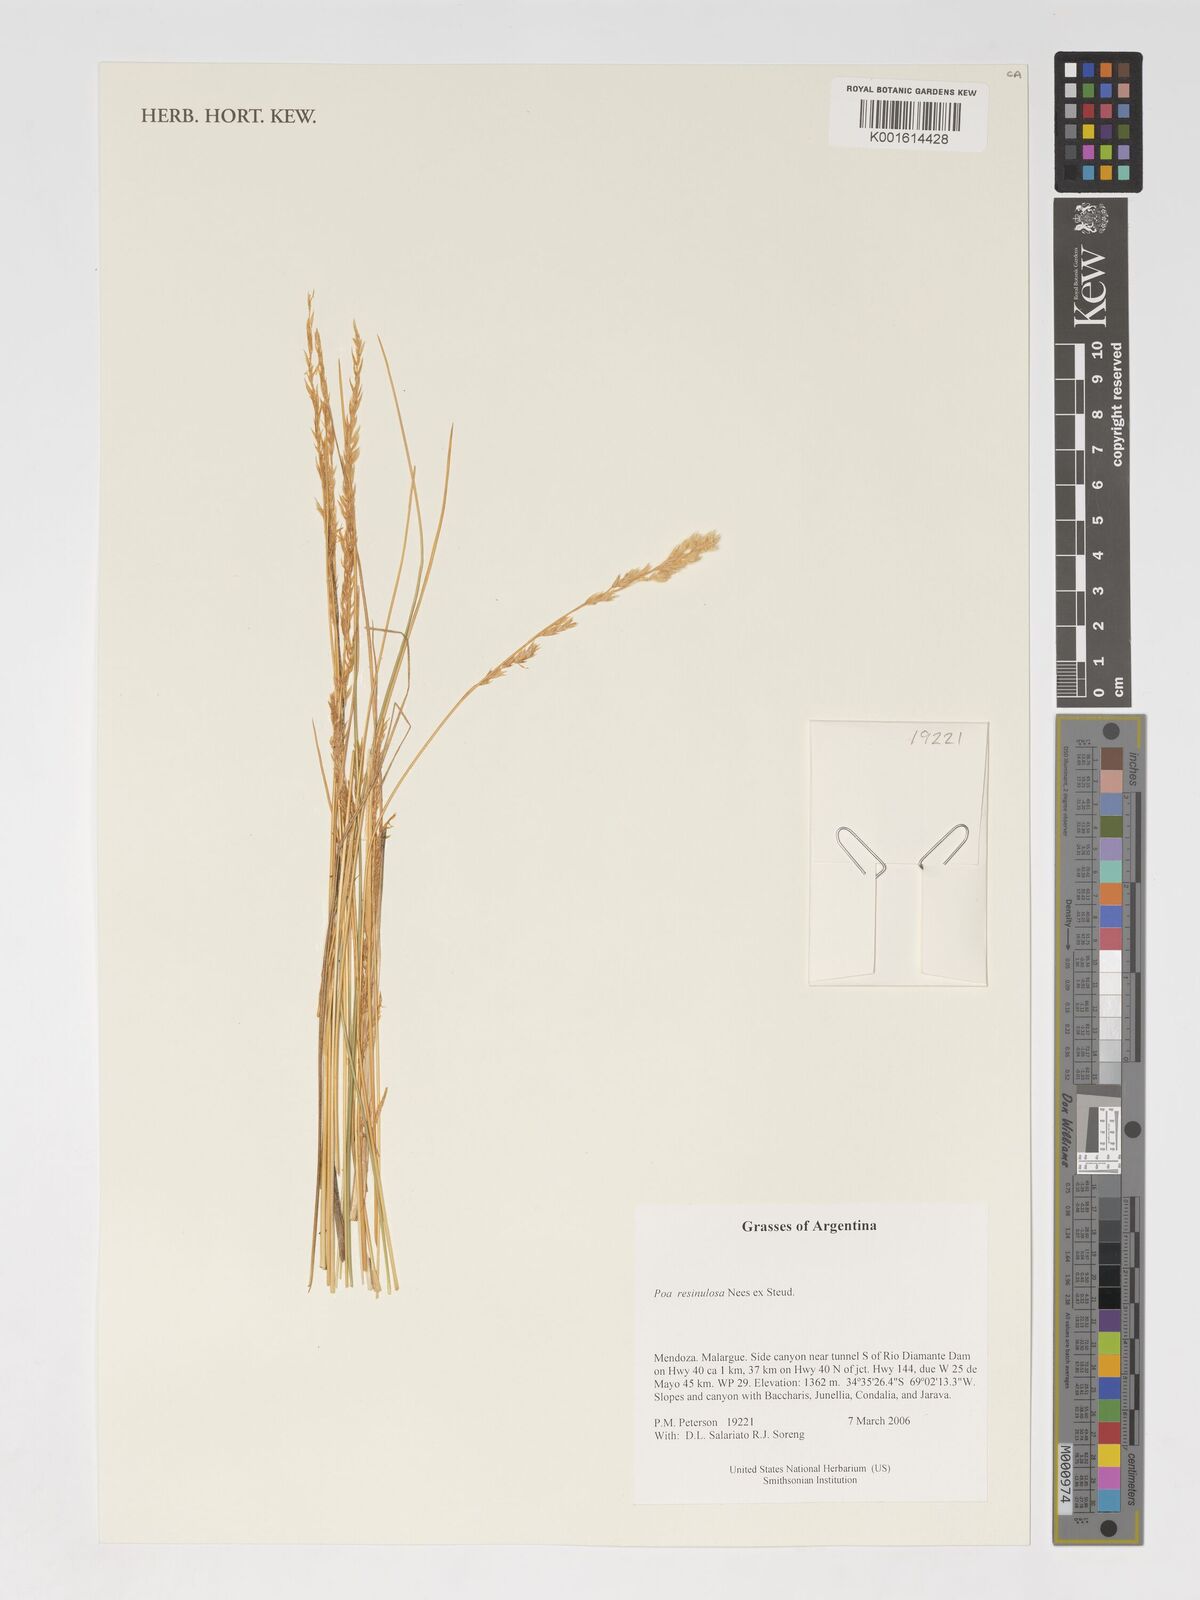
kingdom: Plantae
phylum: Tracheophyta
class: Liliopsida
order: Poales
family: Poaceae
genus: Poa
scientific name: Poa resinulosa
